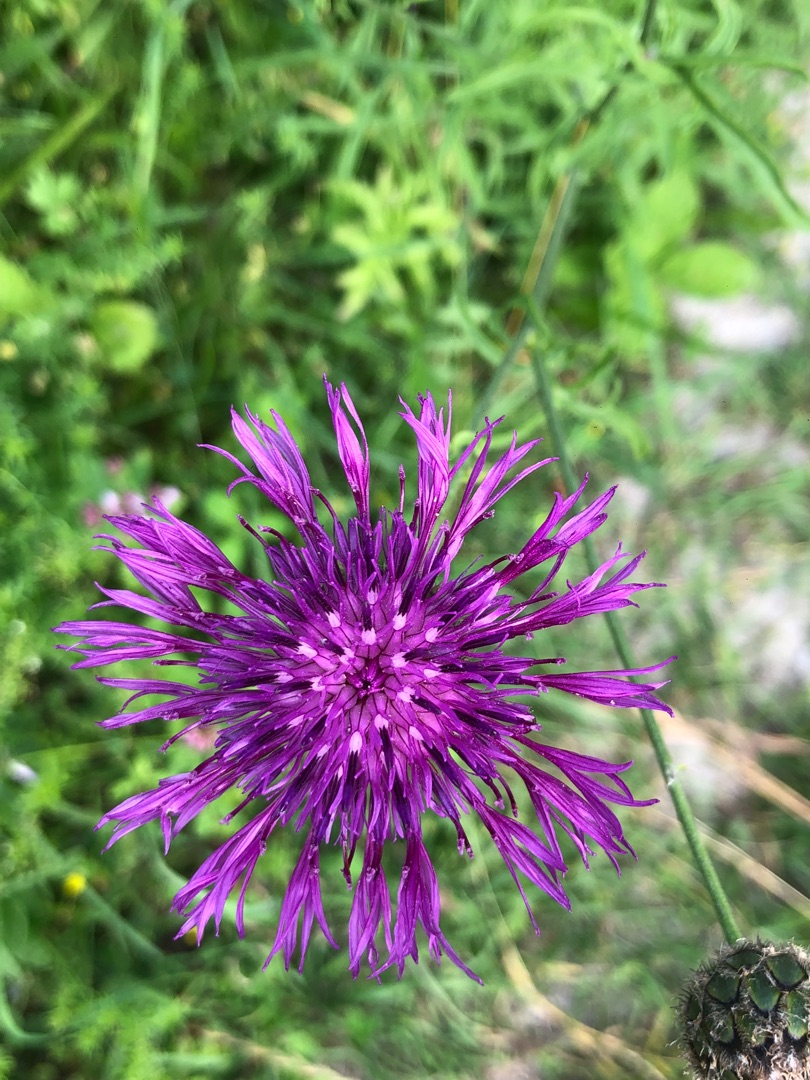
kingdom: Plantae
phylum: Tracheophyta
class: Magnoliopsida
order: Asterales
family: Asteraceae
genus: Centaurea
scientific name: Centaurea scabiosa
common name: Stor knopurt
